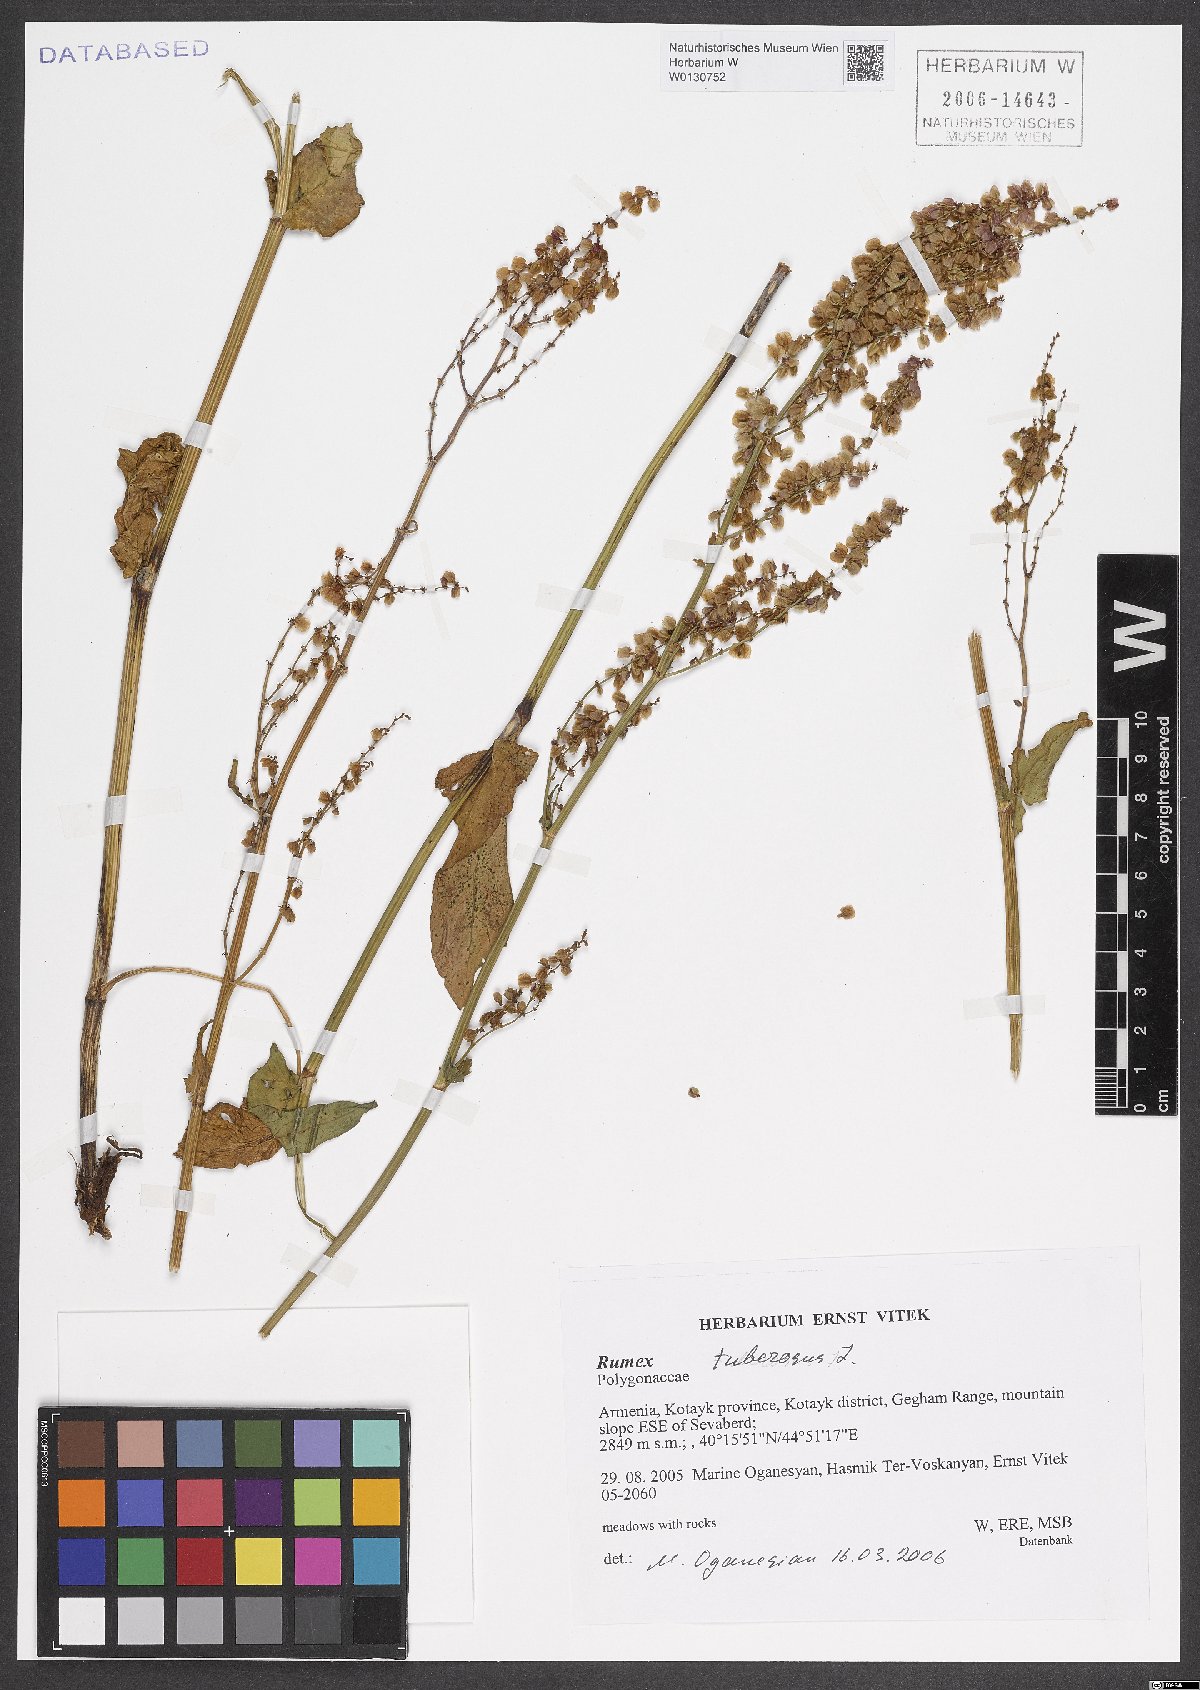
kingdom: Plantae
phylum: Tracheophyta
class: Magnoliopsida
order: Caryophyllales
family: Polygonaceae
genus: Rumex
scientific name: Rumex tuberosus
